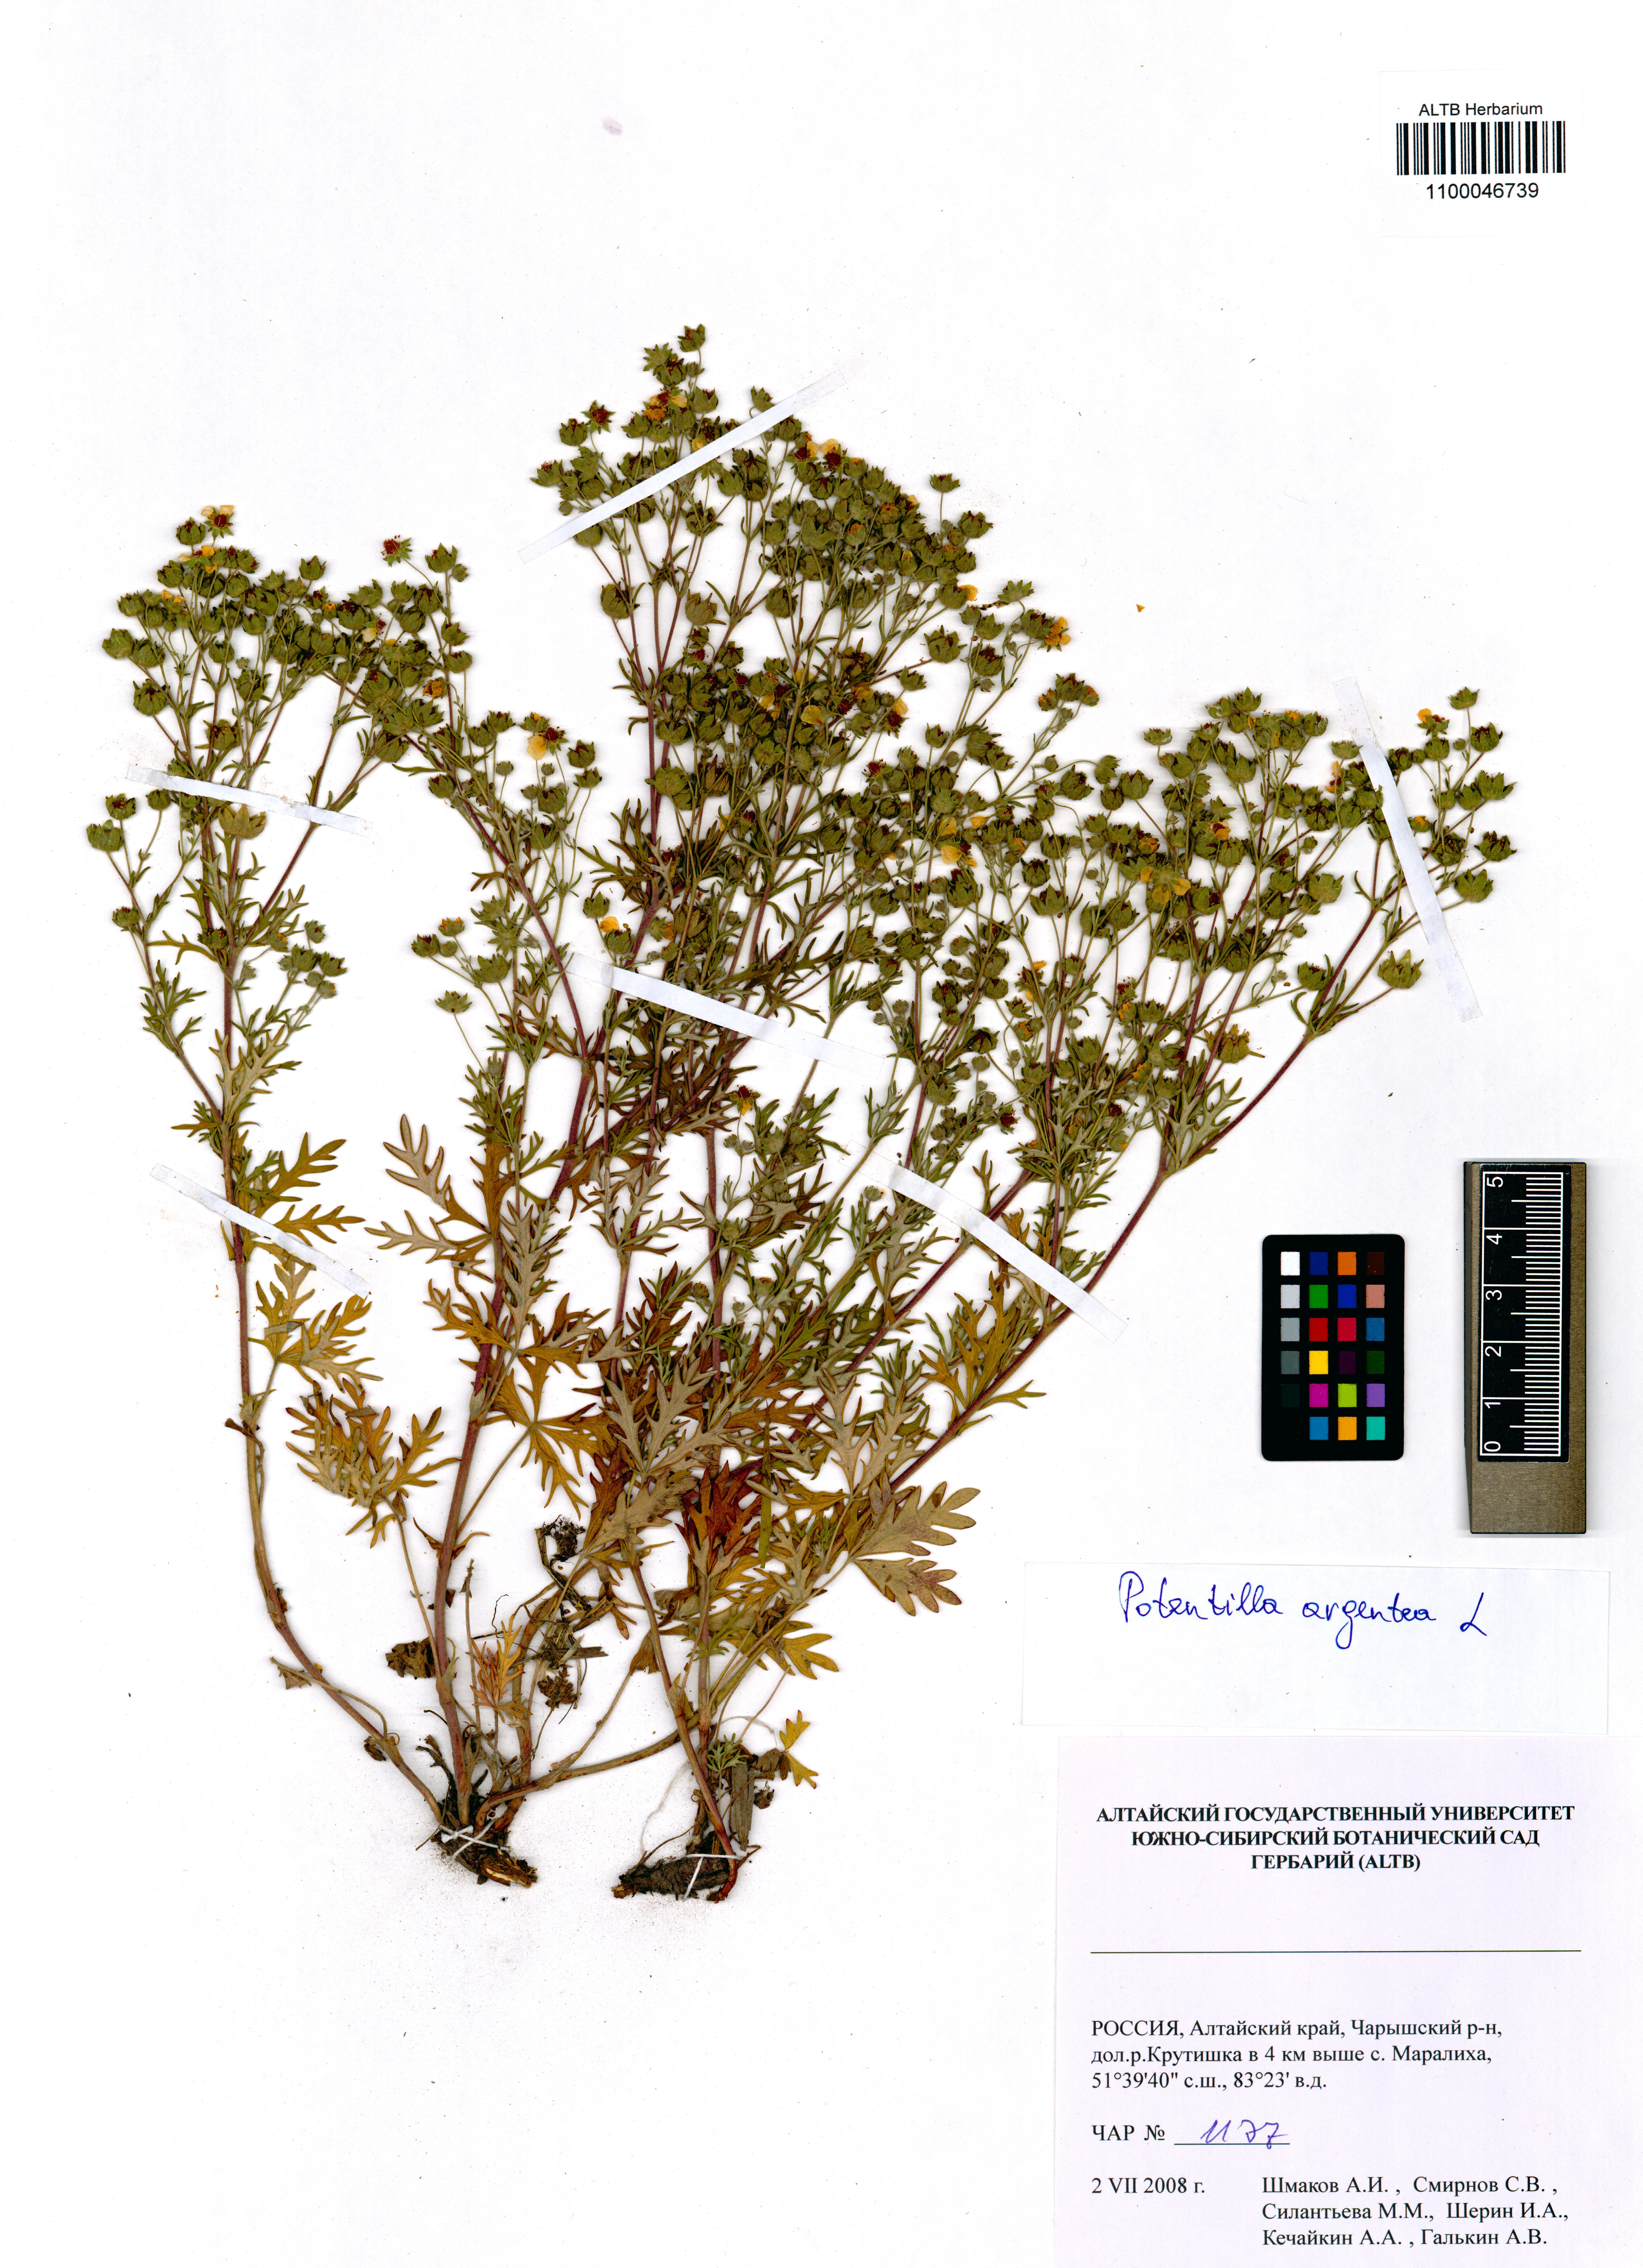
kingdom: Plantae
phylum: Tracheophyta
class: Magnoliopsida
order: Rosales
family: Rosaceae
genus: Potentilla
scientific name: Potentilla argentea
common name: Hoary cinquefoil
